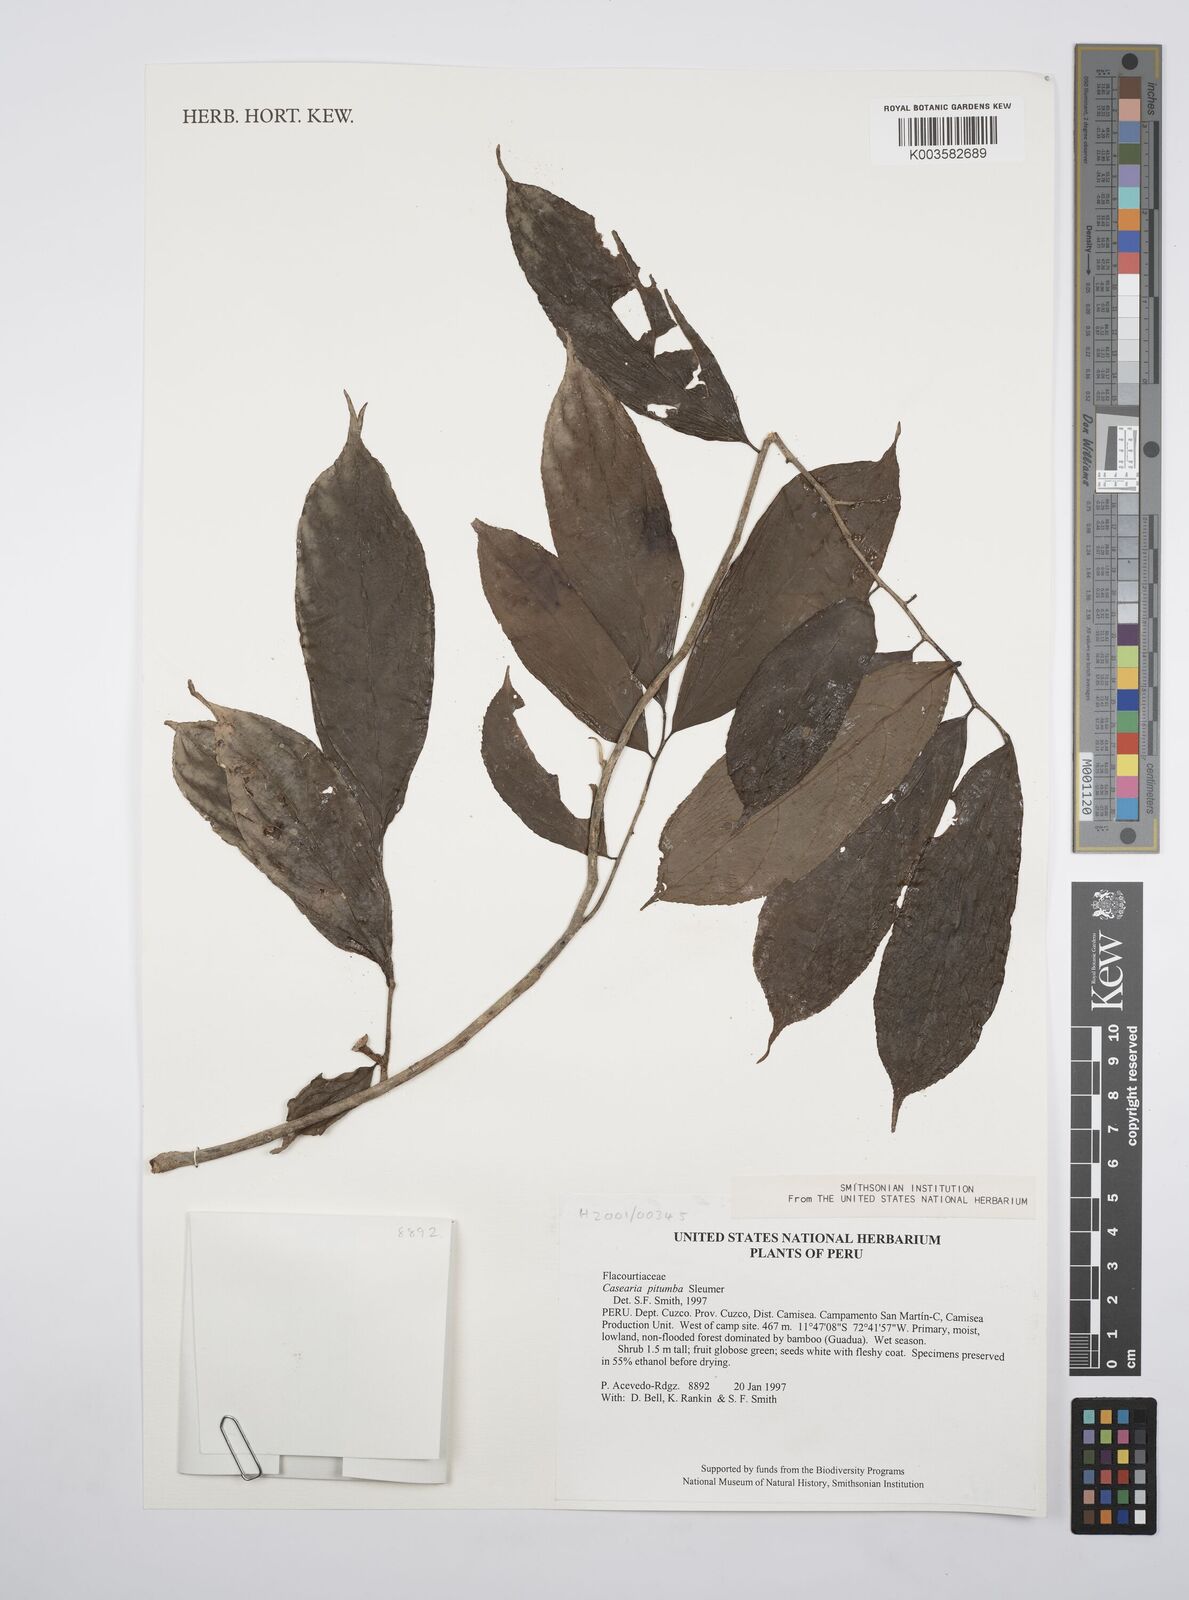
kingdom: Plantae
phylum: Tracheophyta
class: Magnoliopsida
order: Malpighiales
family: Salicaceae
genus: Casearia
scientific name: Casearia pitumba
